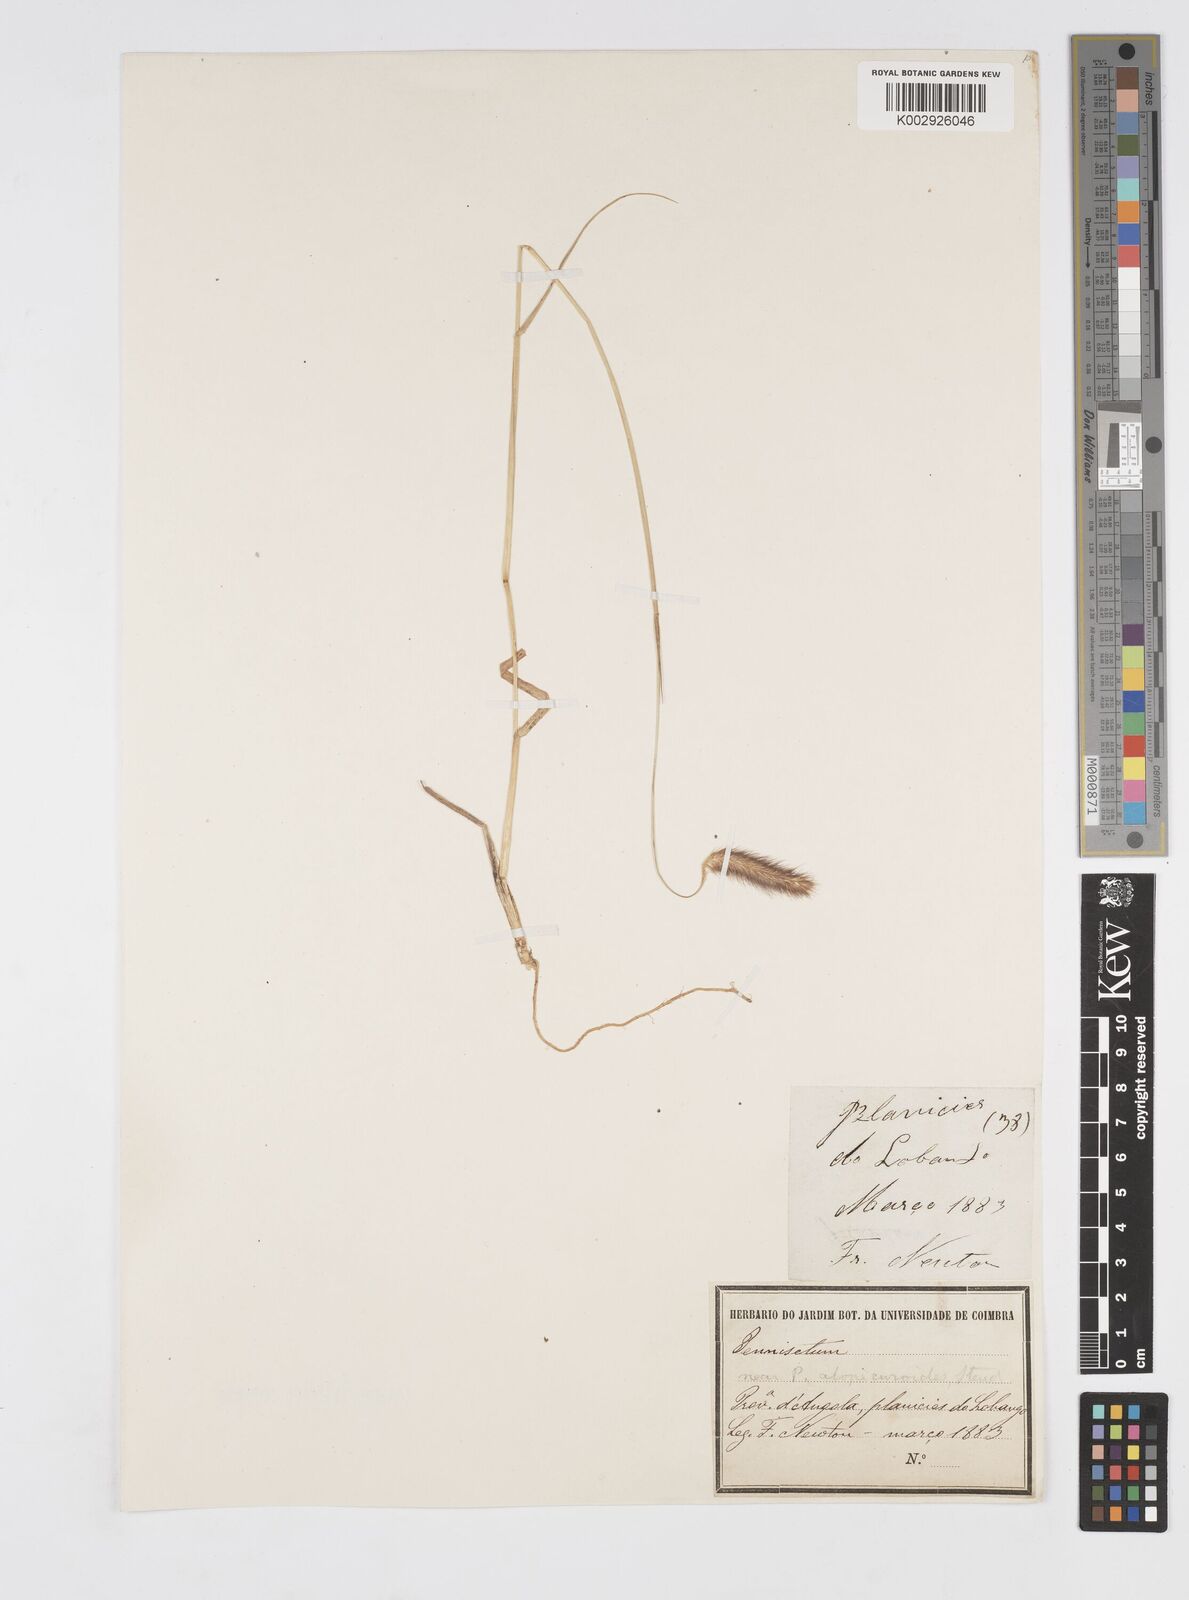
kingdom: Plantae
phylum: Tracheophyta
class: Liliopsida
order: Poales
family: Poaceae
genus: Cenchrus
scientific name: Cenchrus geniculatus
